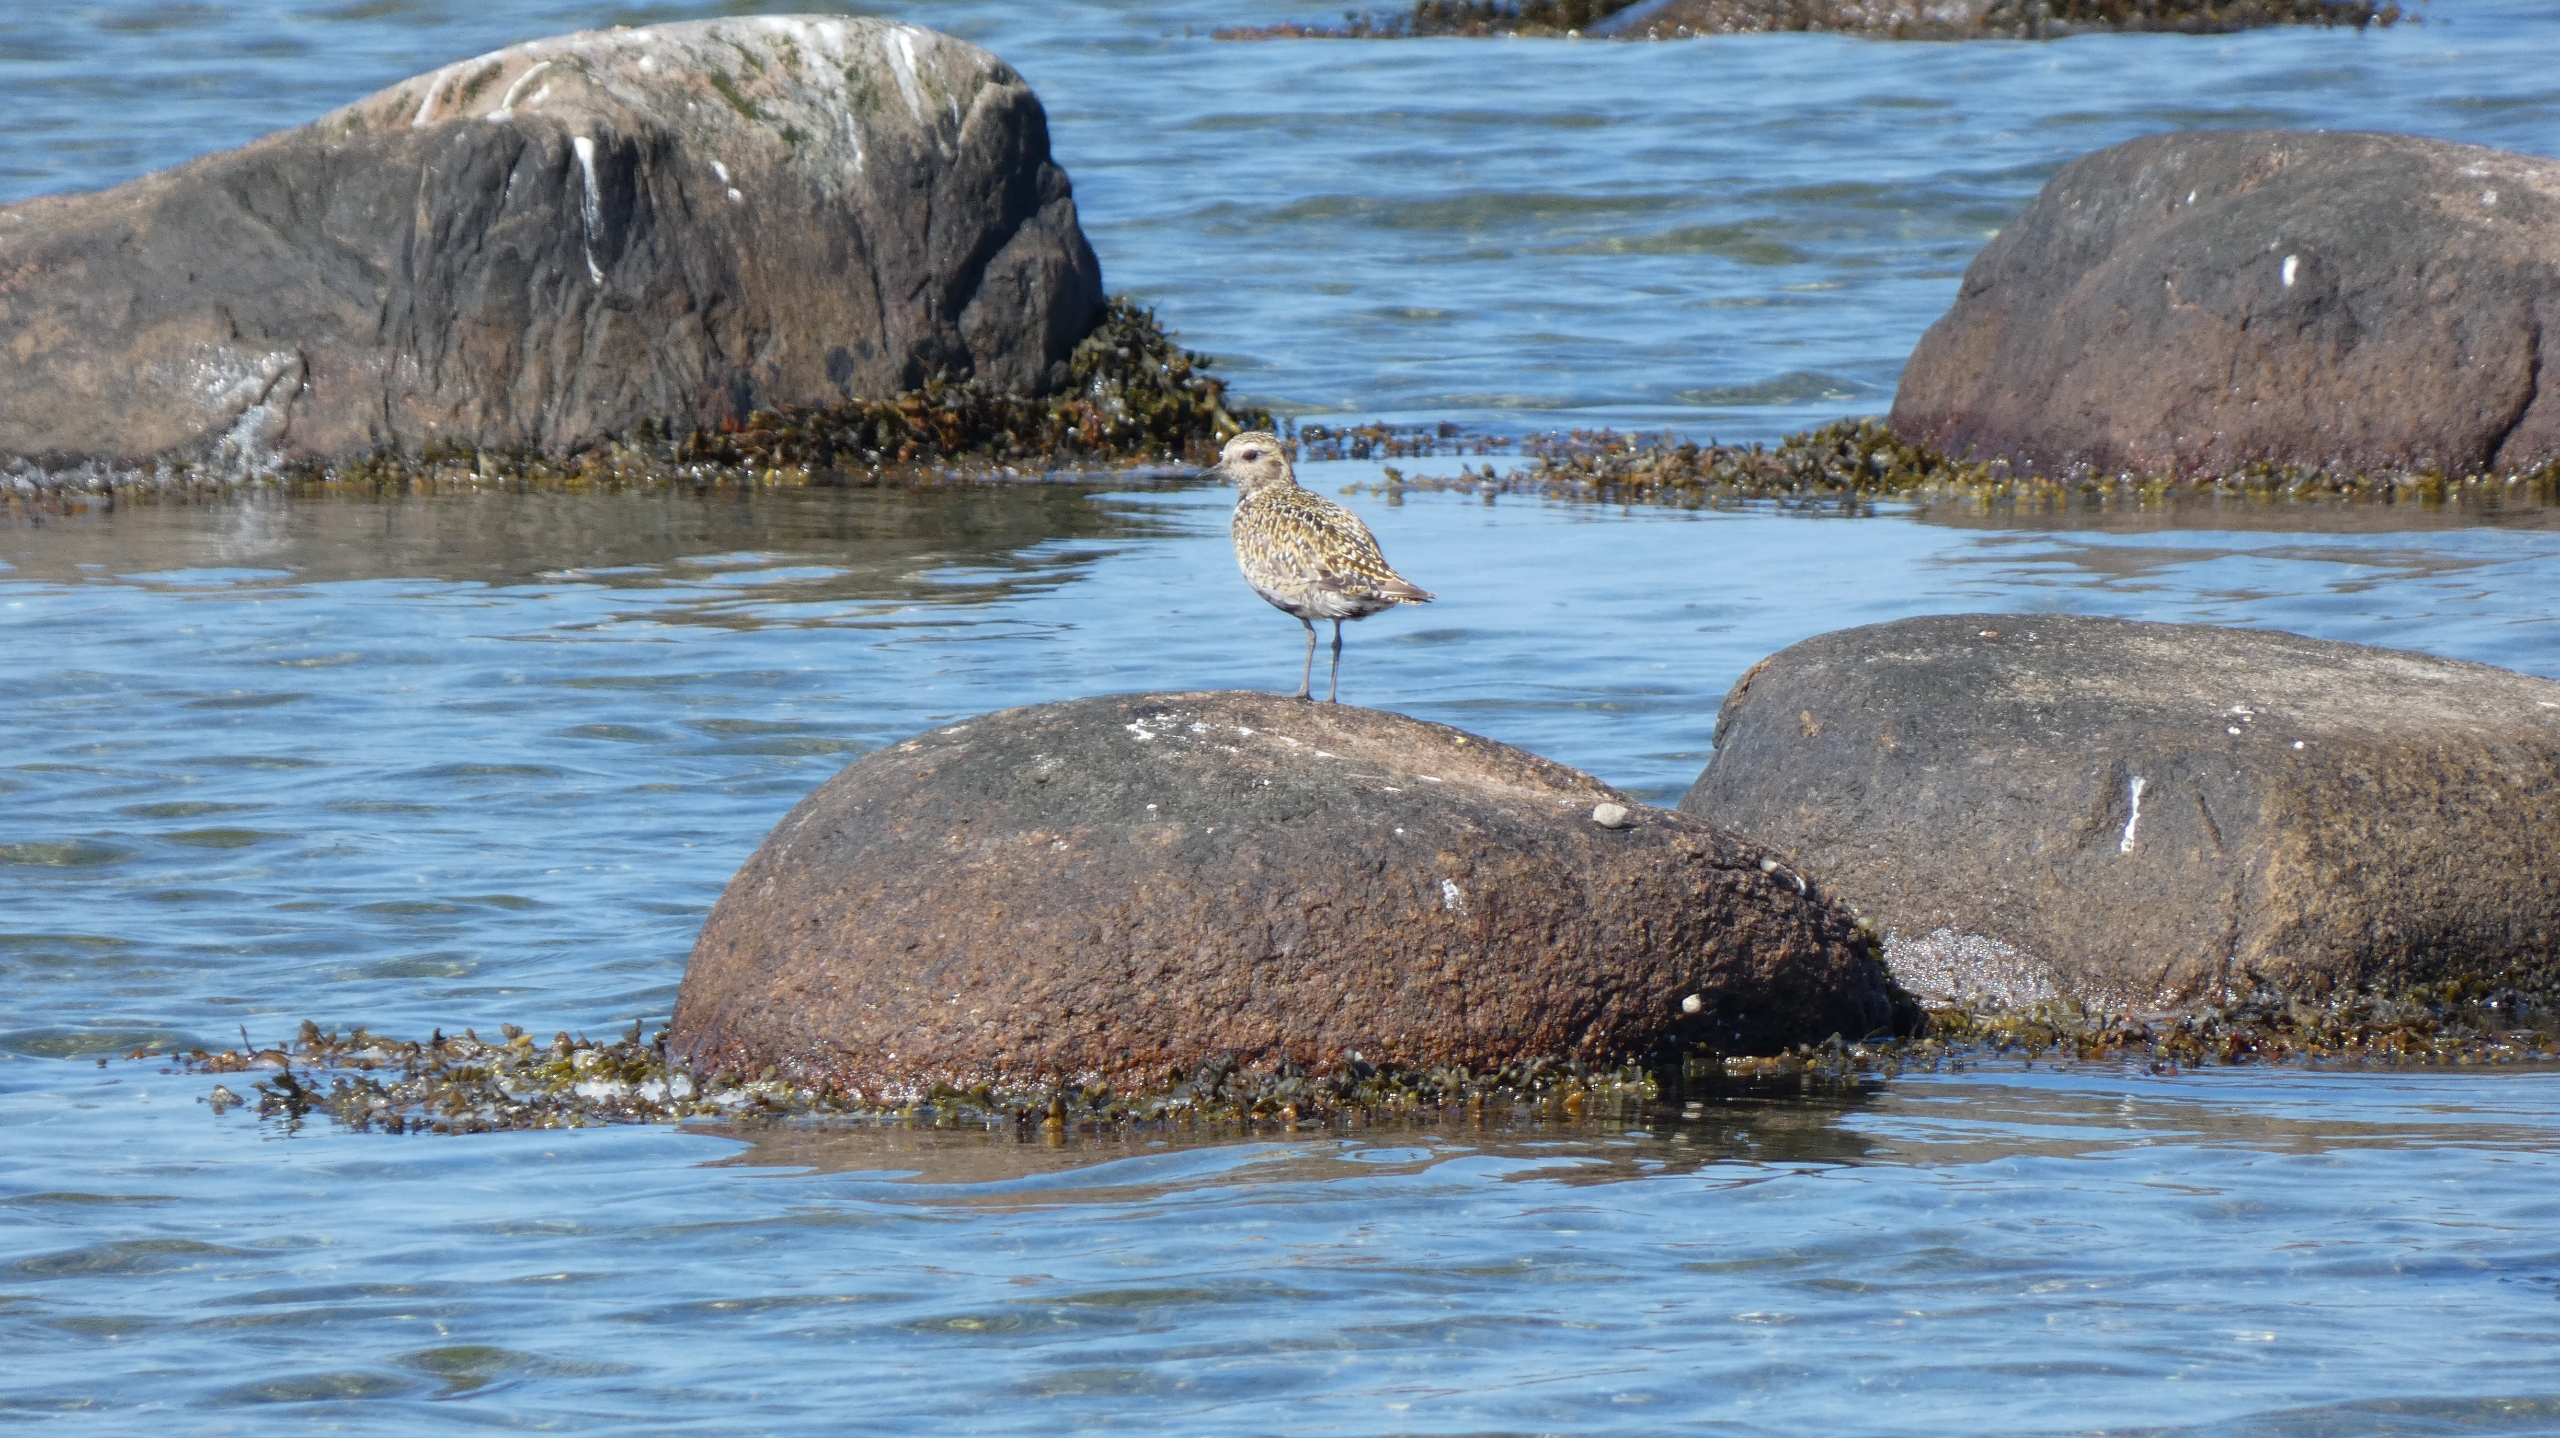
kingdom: Animalia
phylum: Chordata
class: Aves
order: Charadriiformes
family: Charadriidae
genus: Pluvialis
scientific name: Pluvialis apricaria
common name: Hjejle
